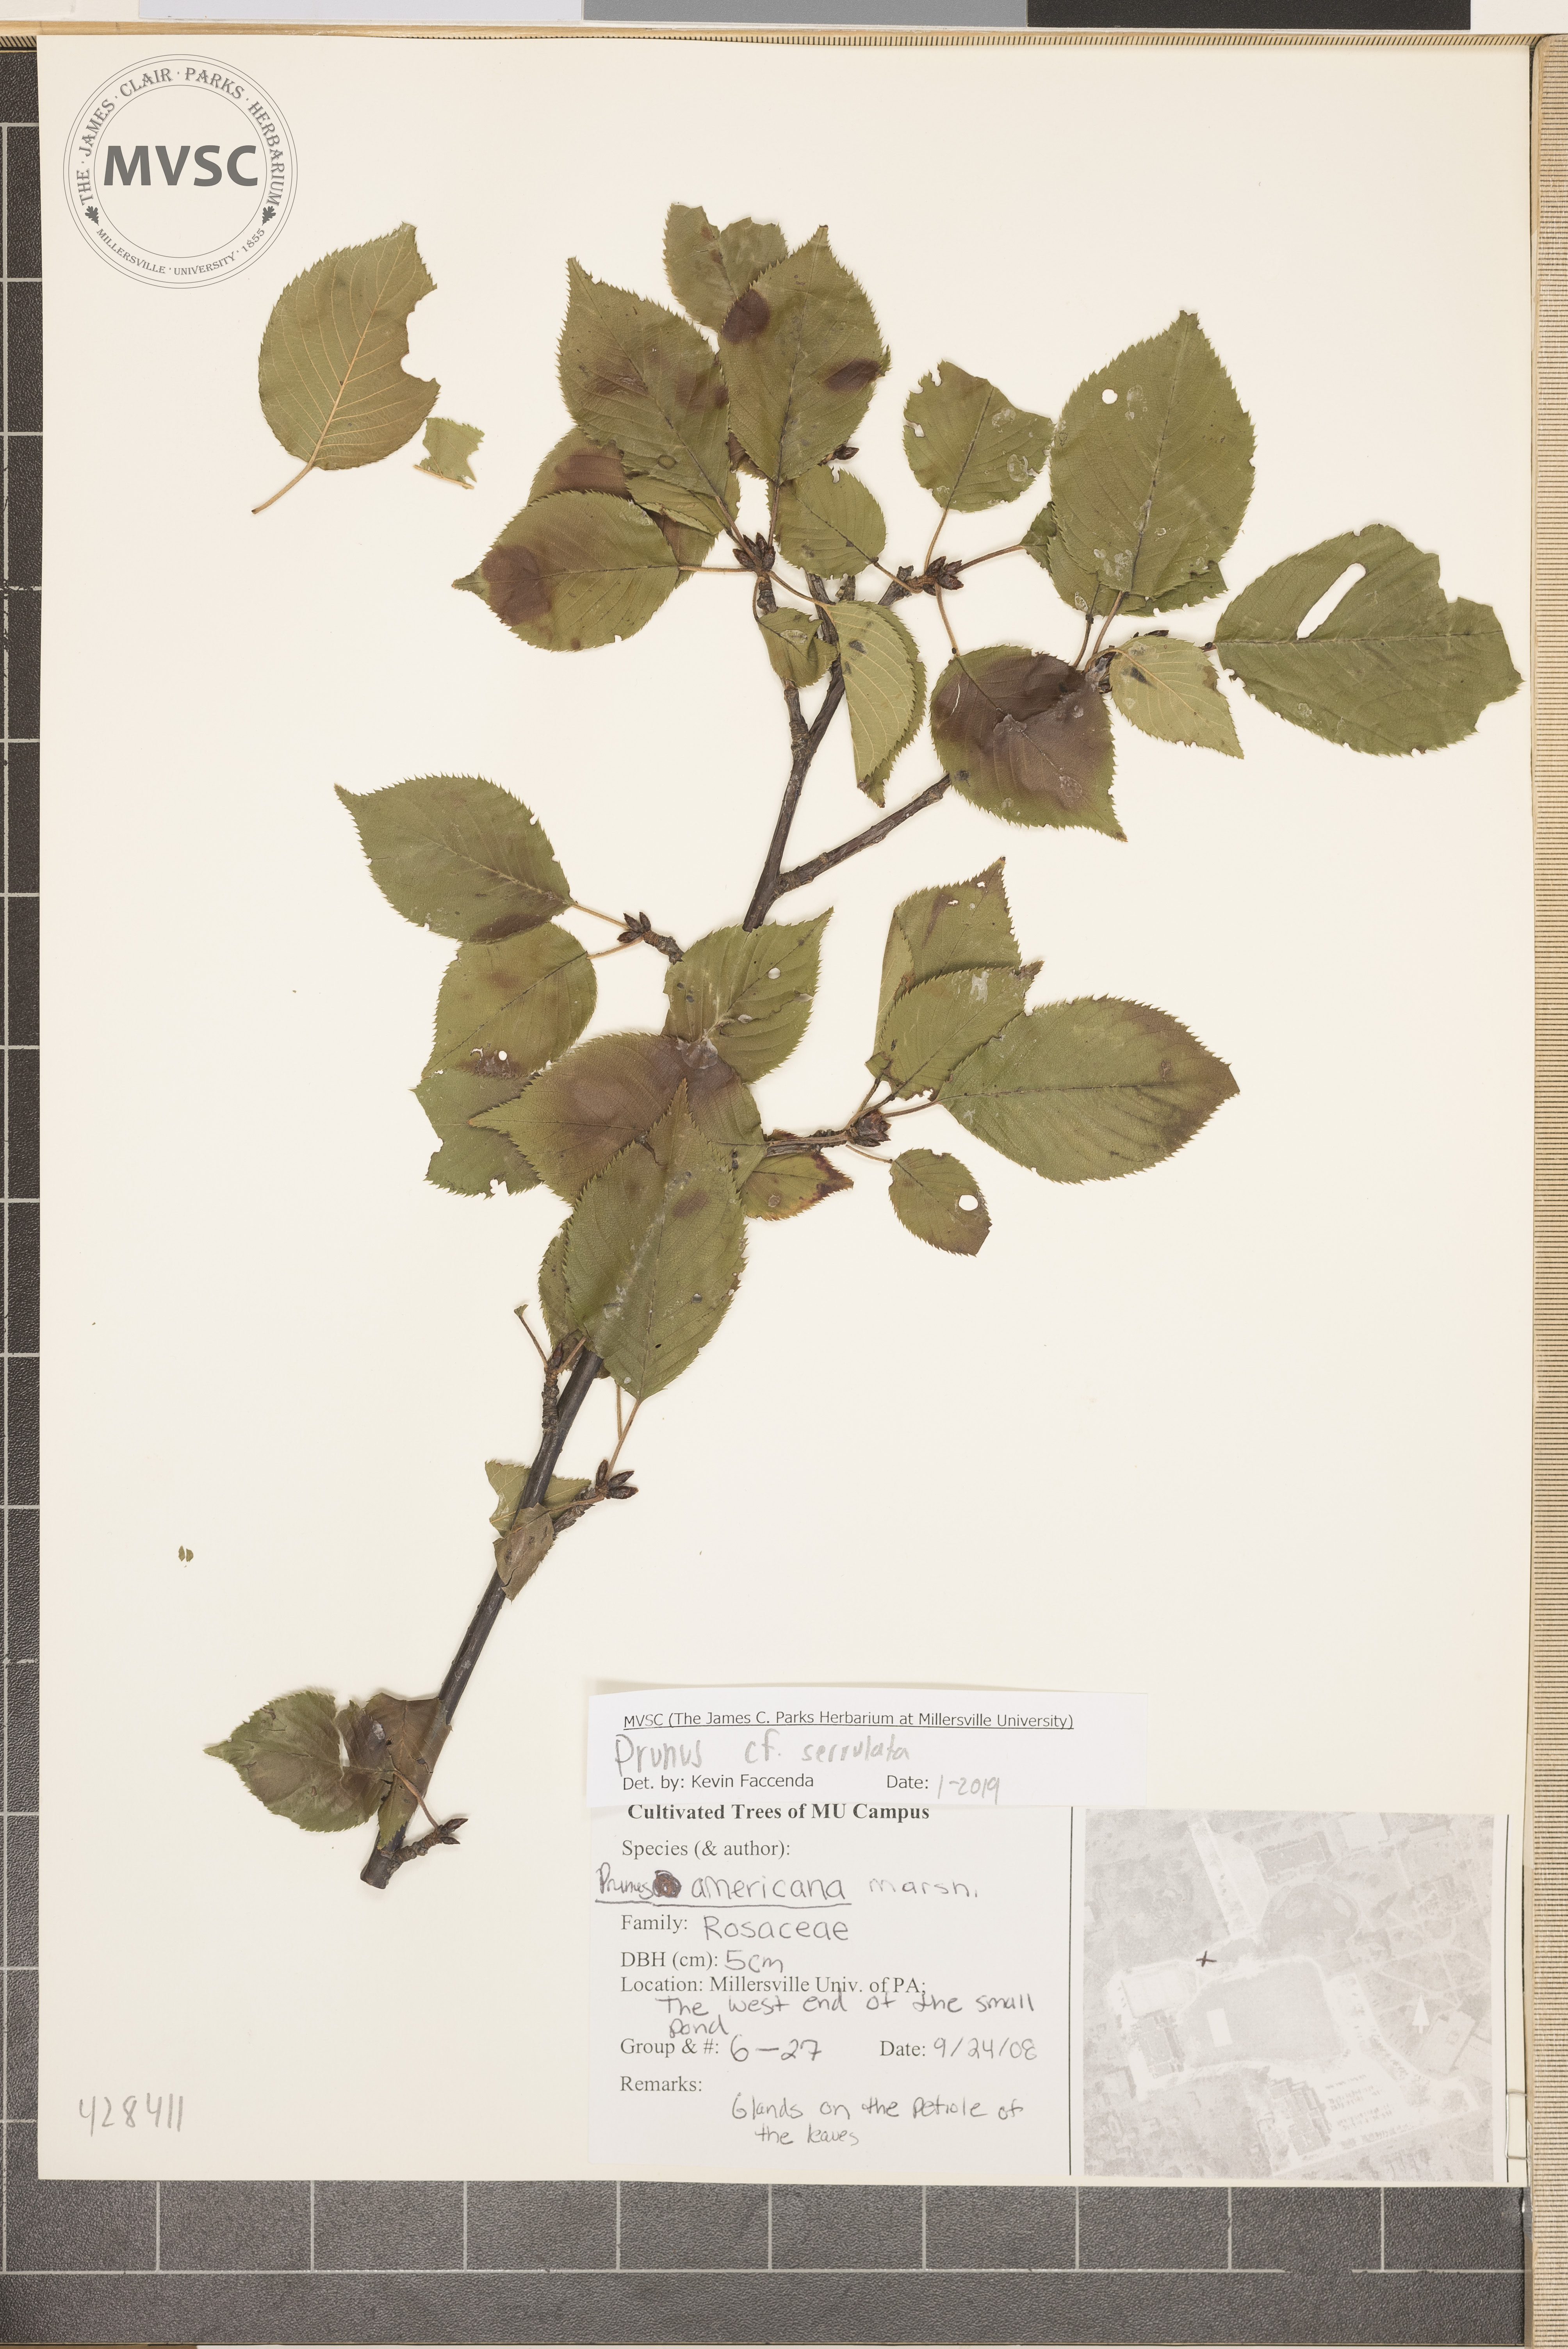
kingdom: Plantae
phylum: Tracheophyta
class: Magnoliopsida
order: Rosales
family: Rosaceae
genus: Prunus
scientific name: Prunus serrulata
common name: Japanese cherry
